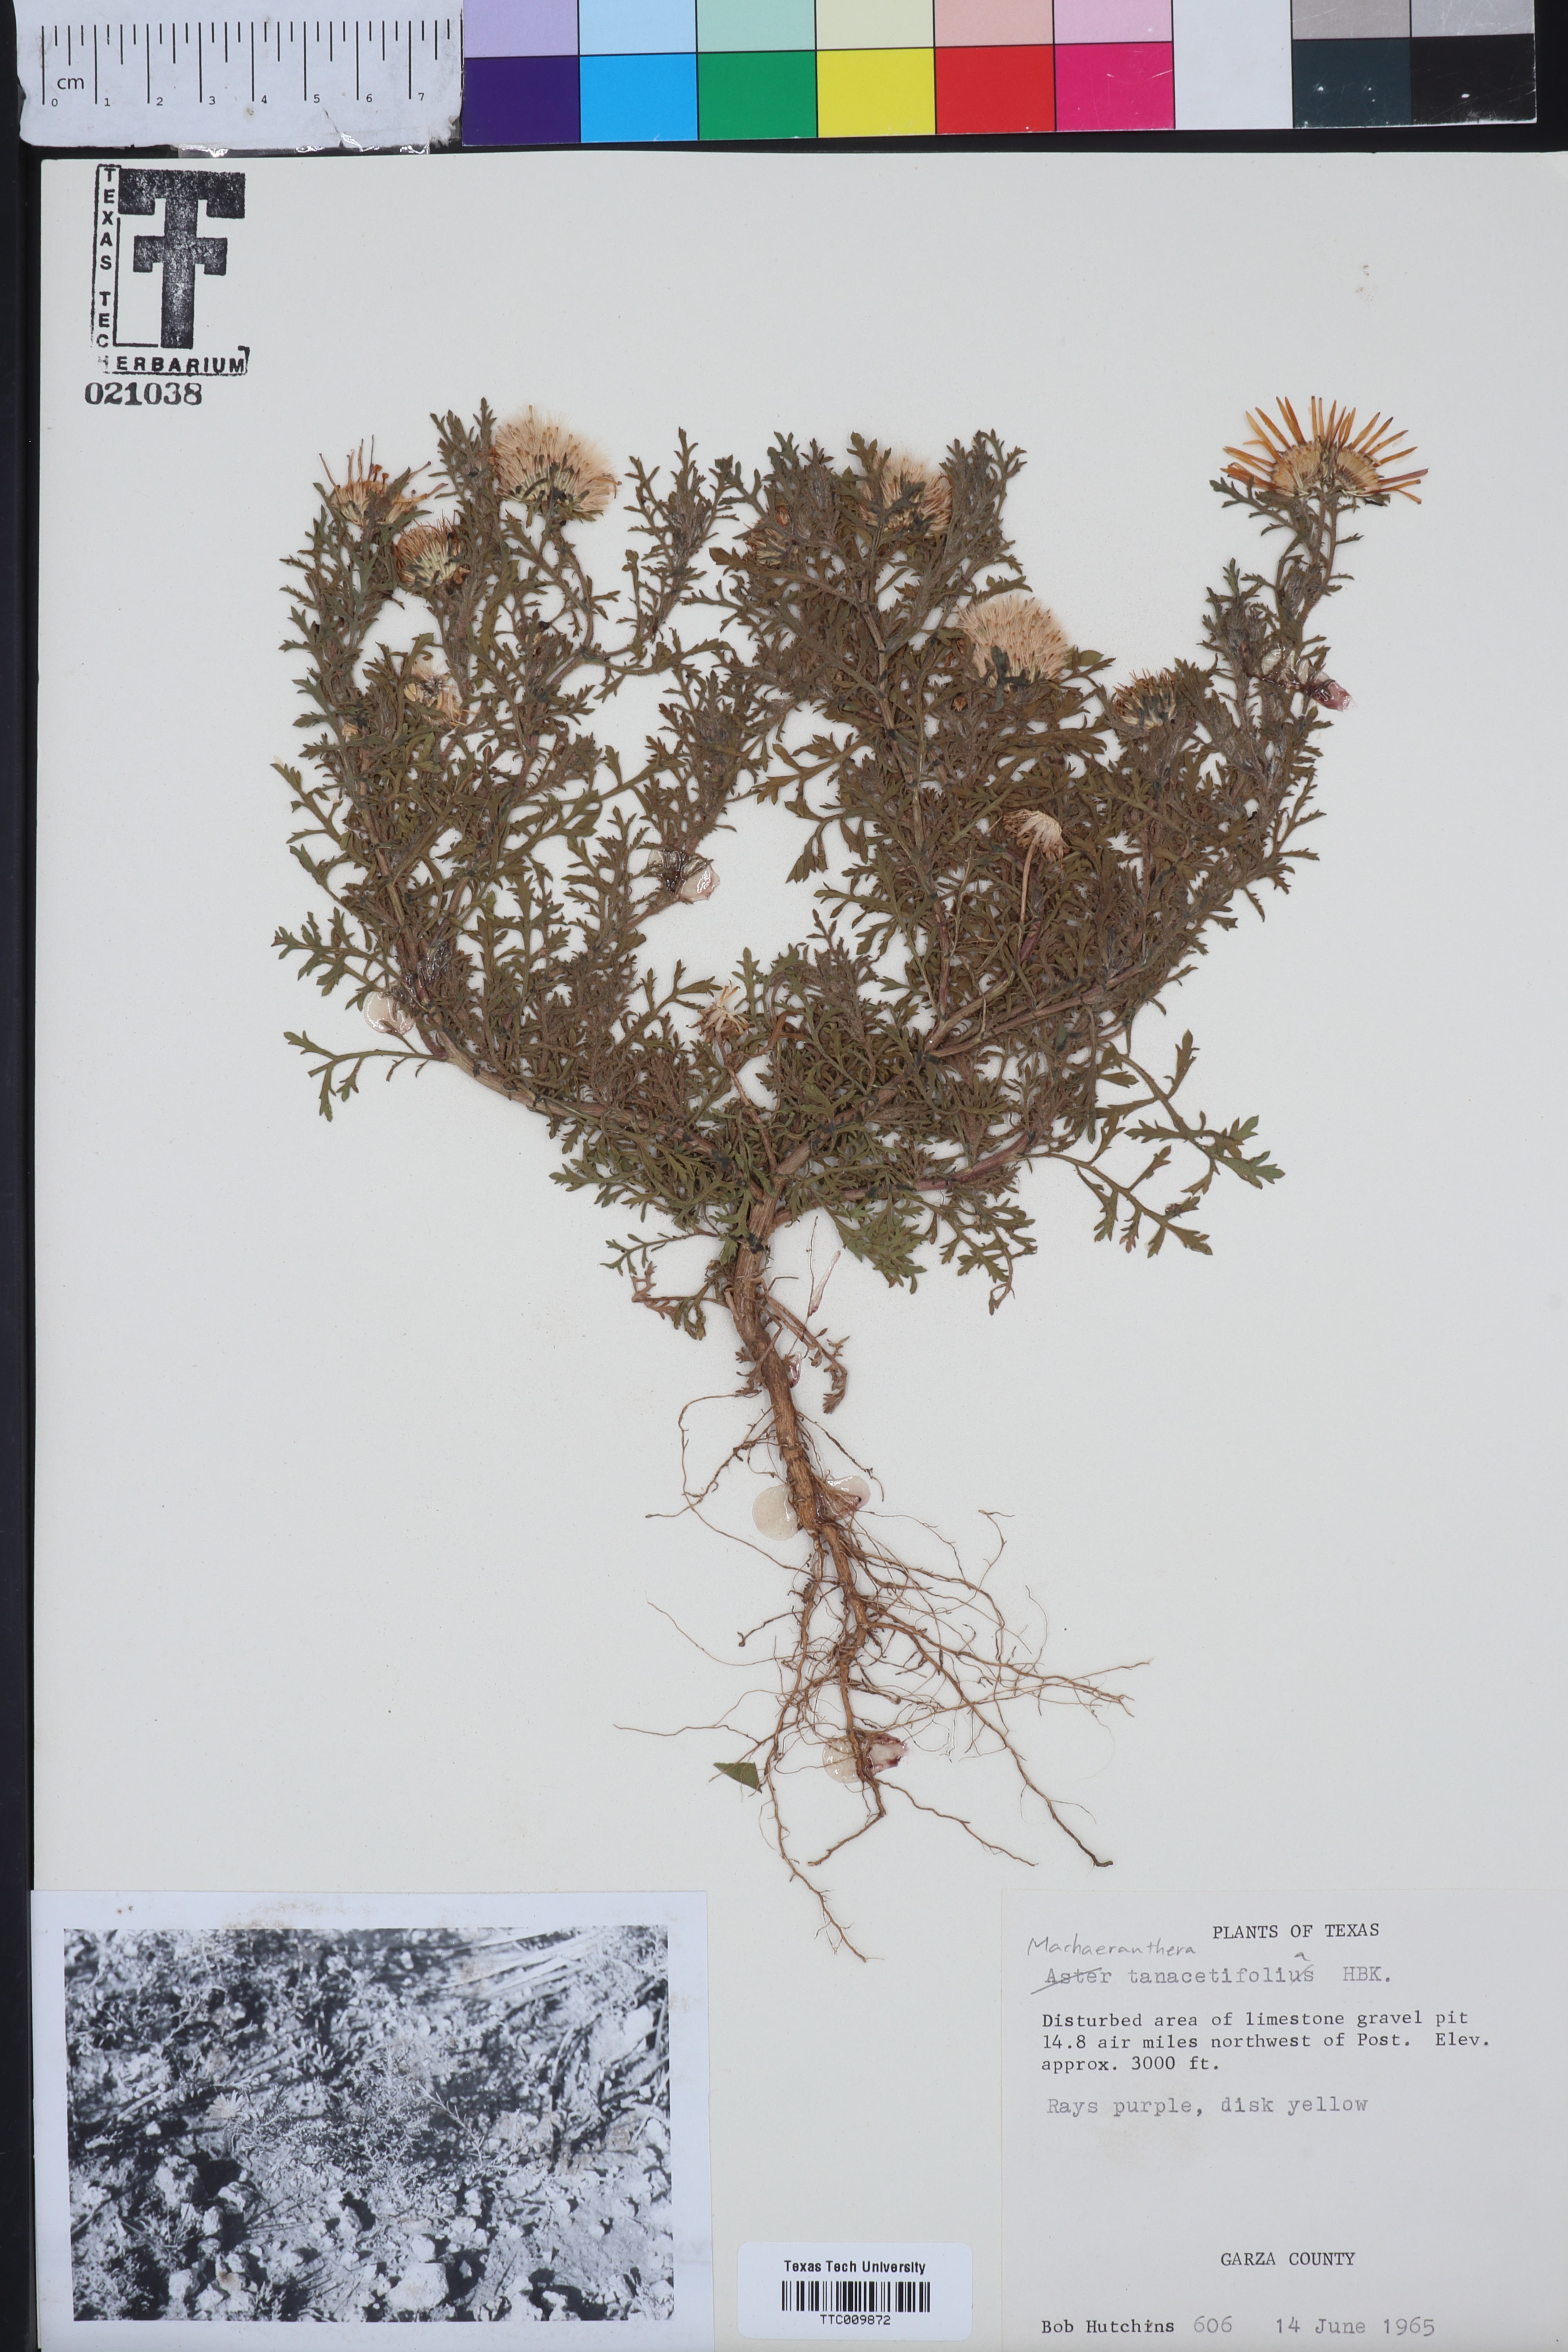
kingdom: Plantae
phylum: Tracheophyta
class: Magnoliopsida
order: Asterales
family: Asteraceae
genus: Machaeranthera
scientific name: Machaeranthera tanacetifolia
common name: Tansy-aster
